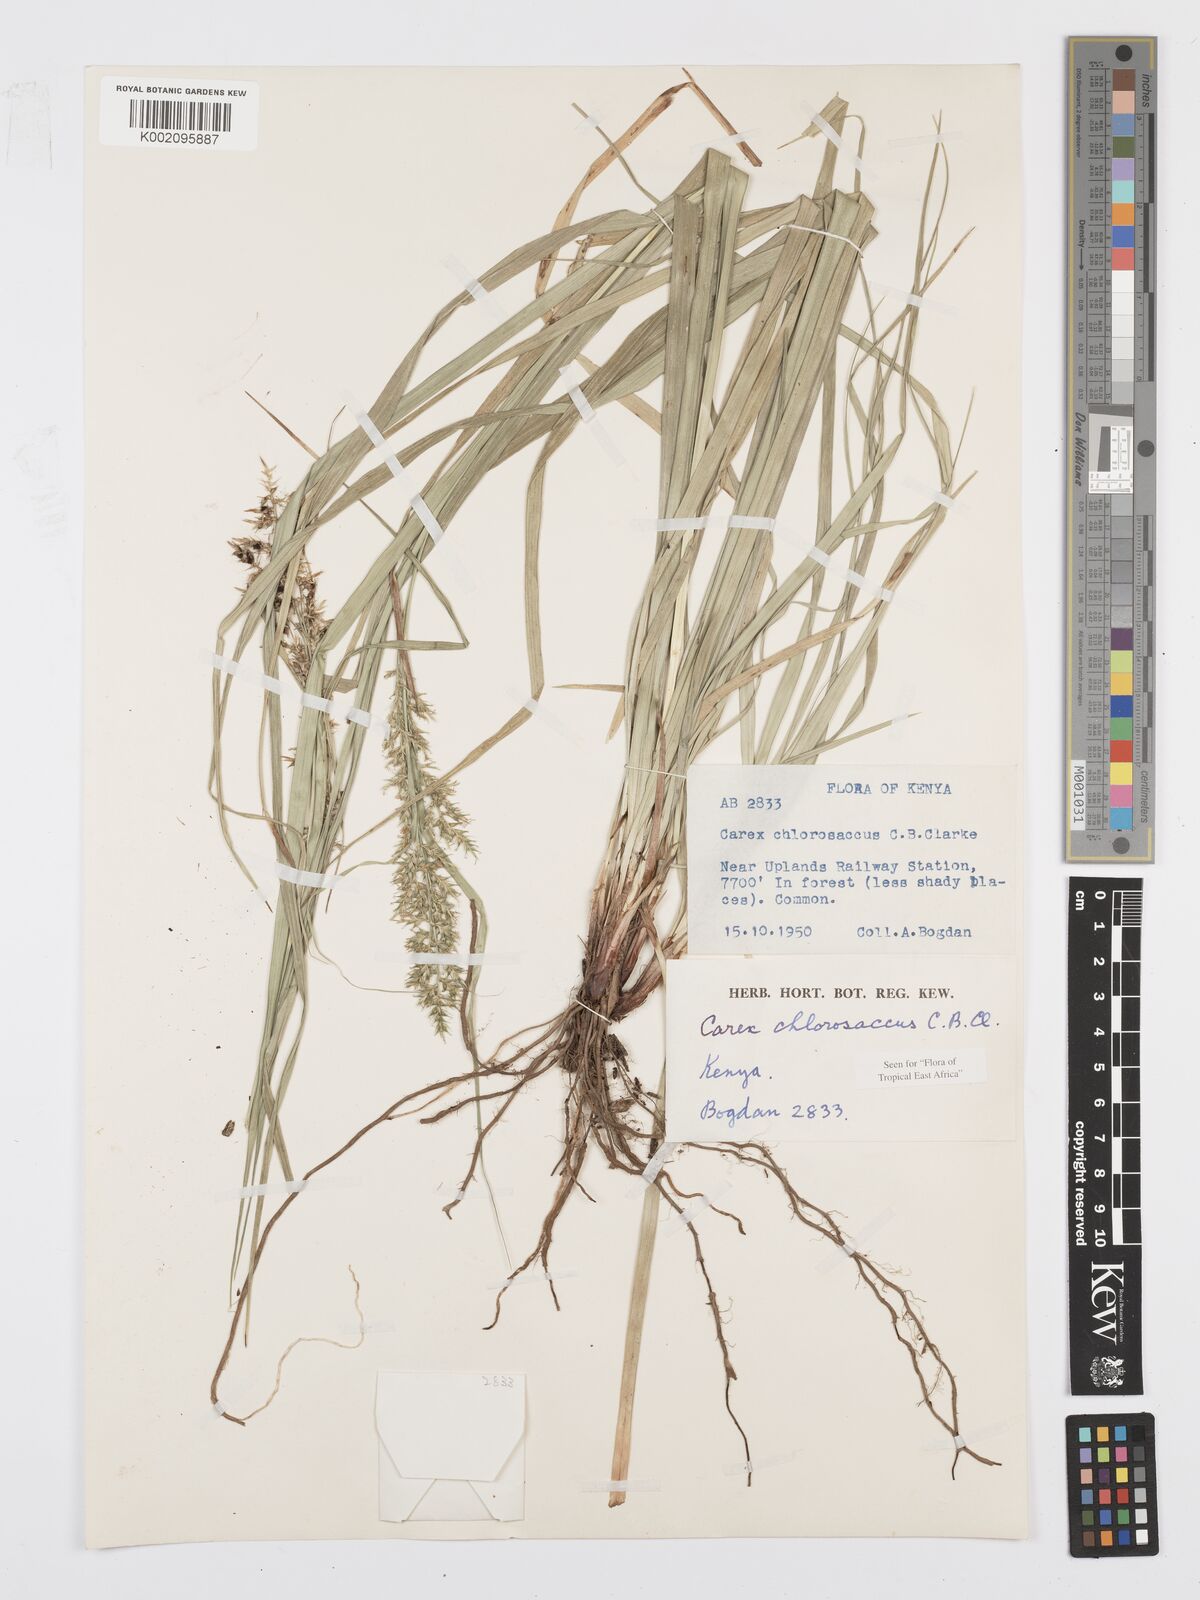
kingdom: Plantae
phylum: Tracheophyta
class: Liliopsida
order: Poales
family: Cyperaceae
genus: Carex
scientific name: Carex chlorosaccus
